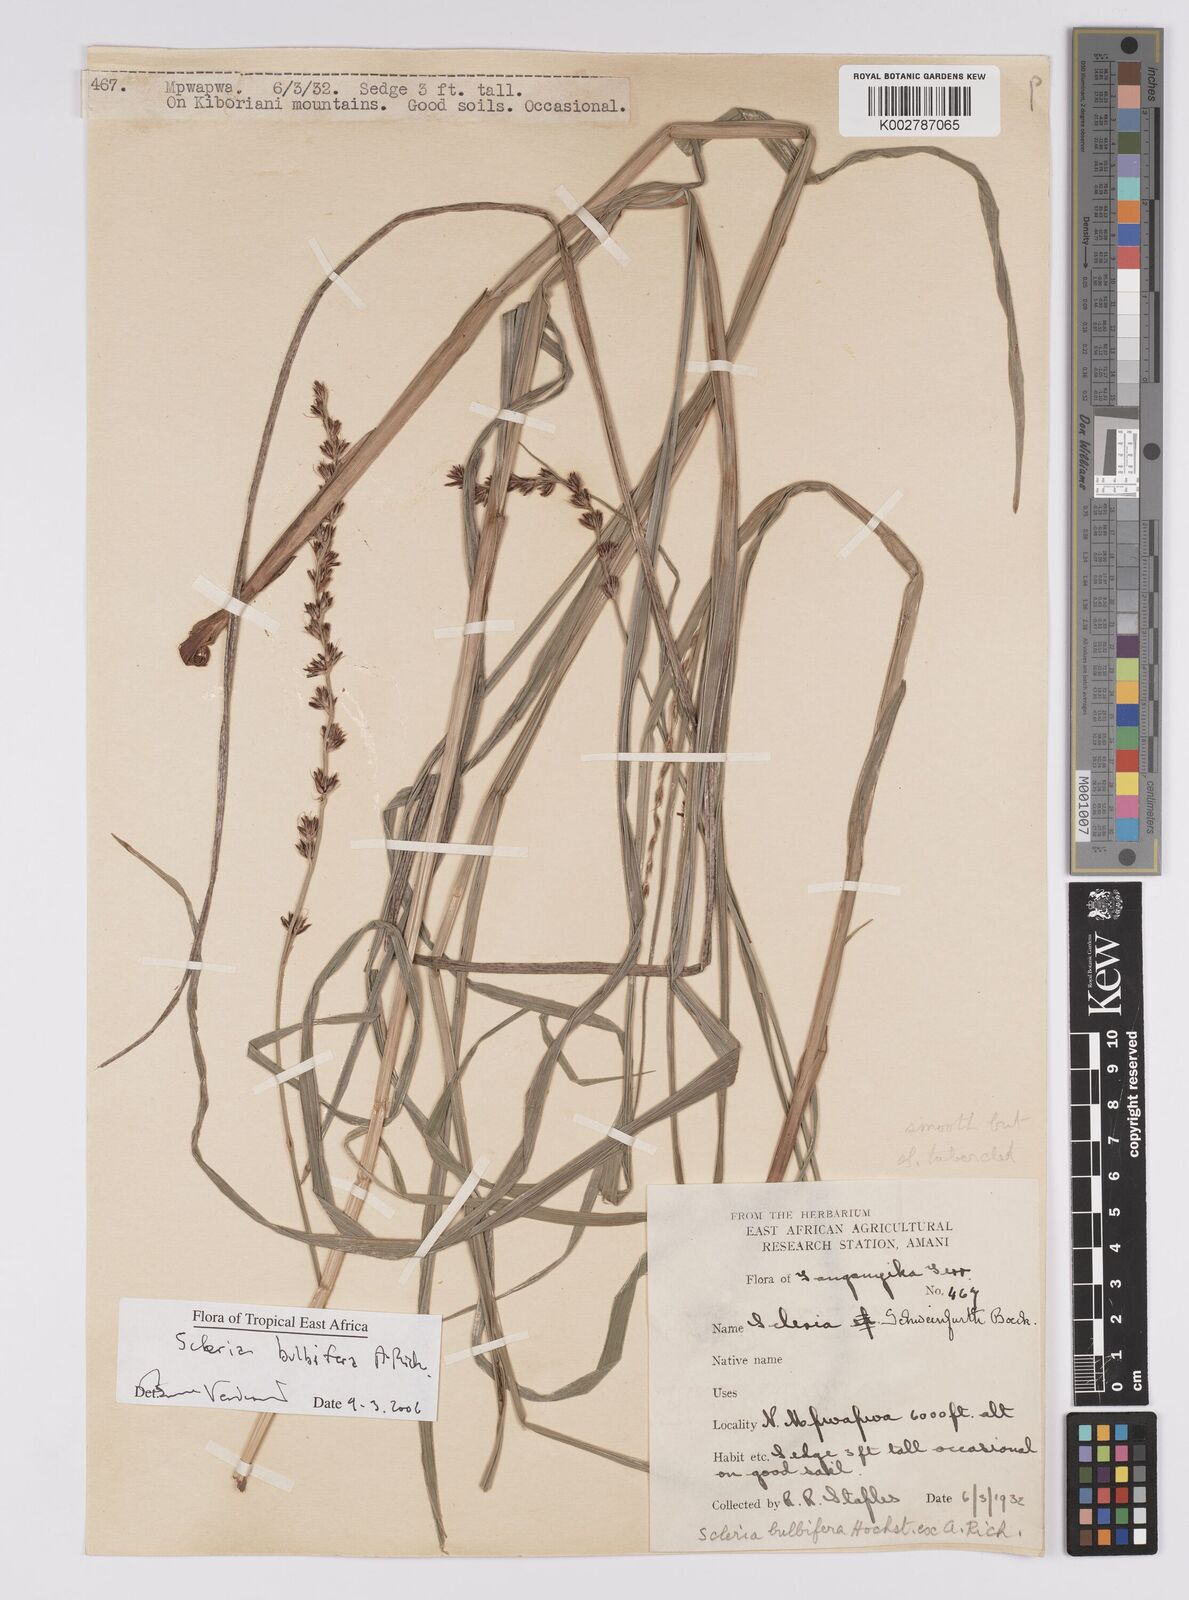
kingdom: Plantae
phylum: Tracheophyta
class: Liliopsida
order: Poales
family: Cyperaceae
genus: Scleria
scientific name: Scleria bulbifera
